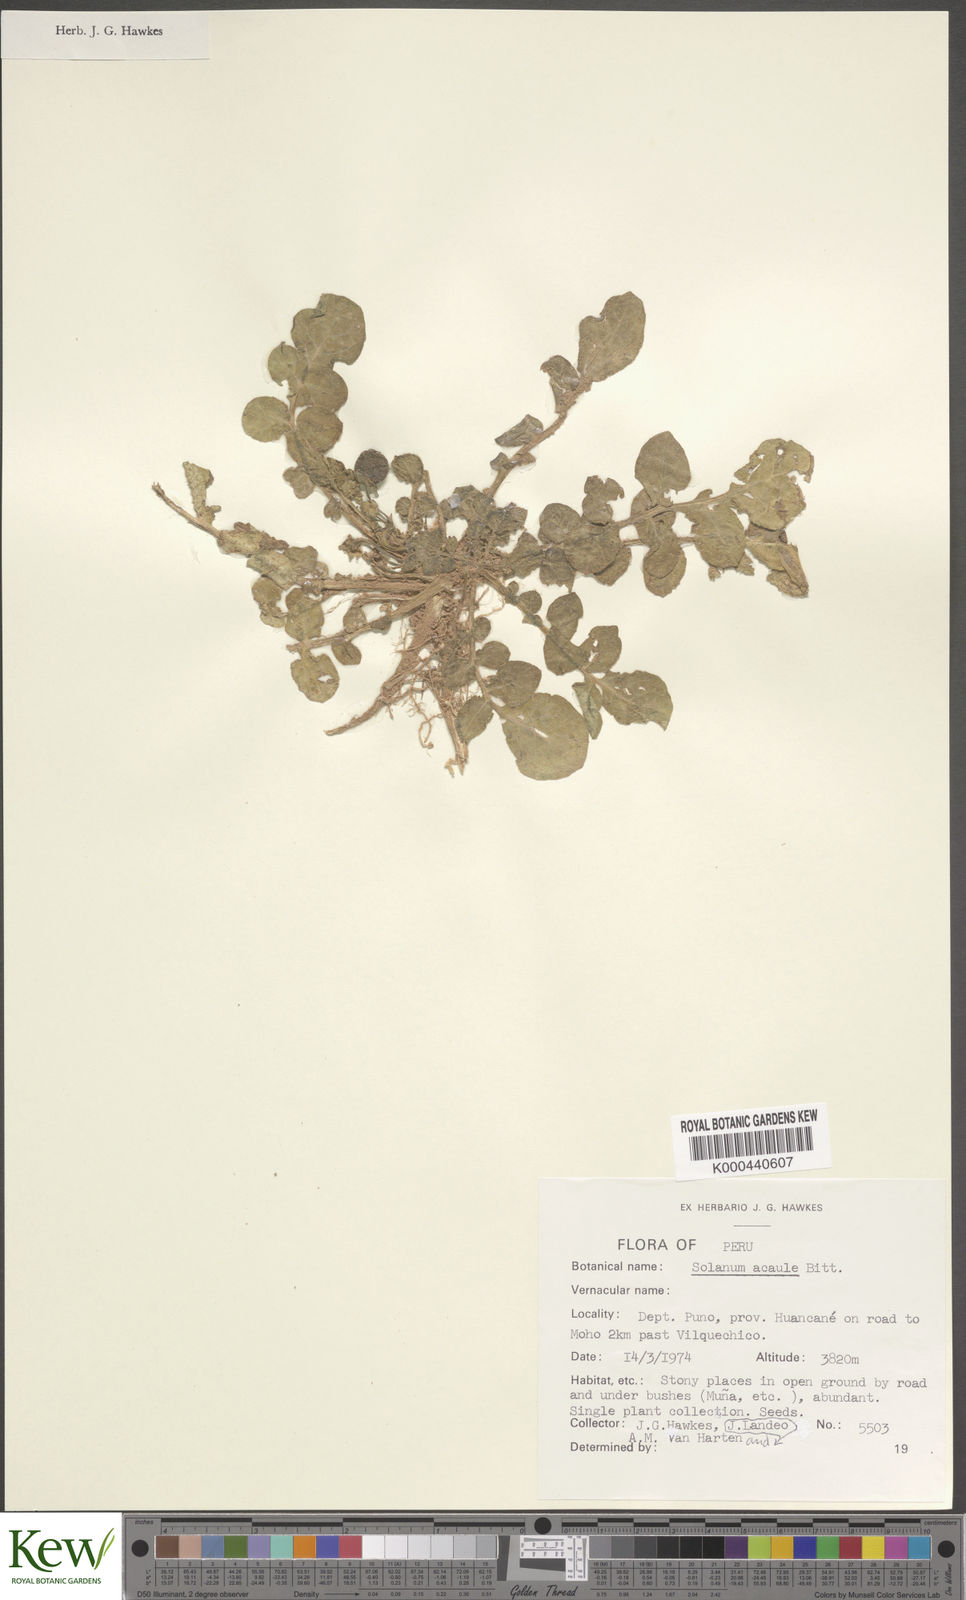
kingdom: Plantae
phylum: Tracheophyta
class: Magnoliopsida
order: Solanales
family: Solanaceae
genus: Solanum
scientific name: Solanum acaule
